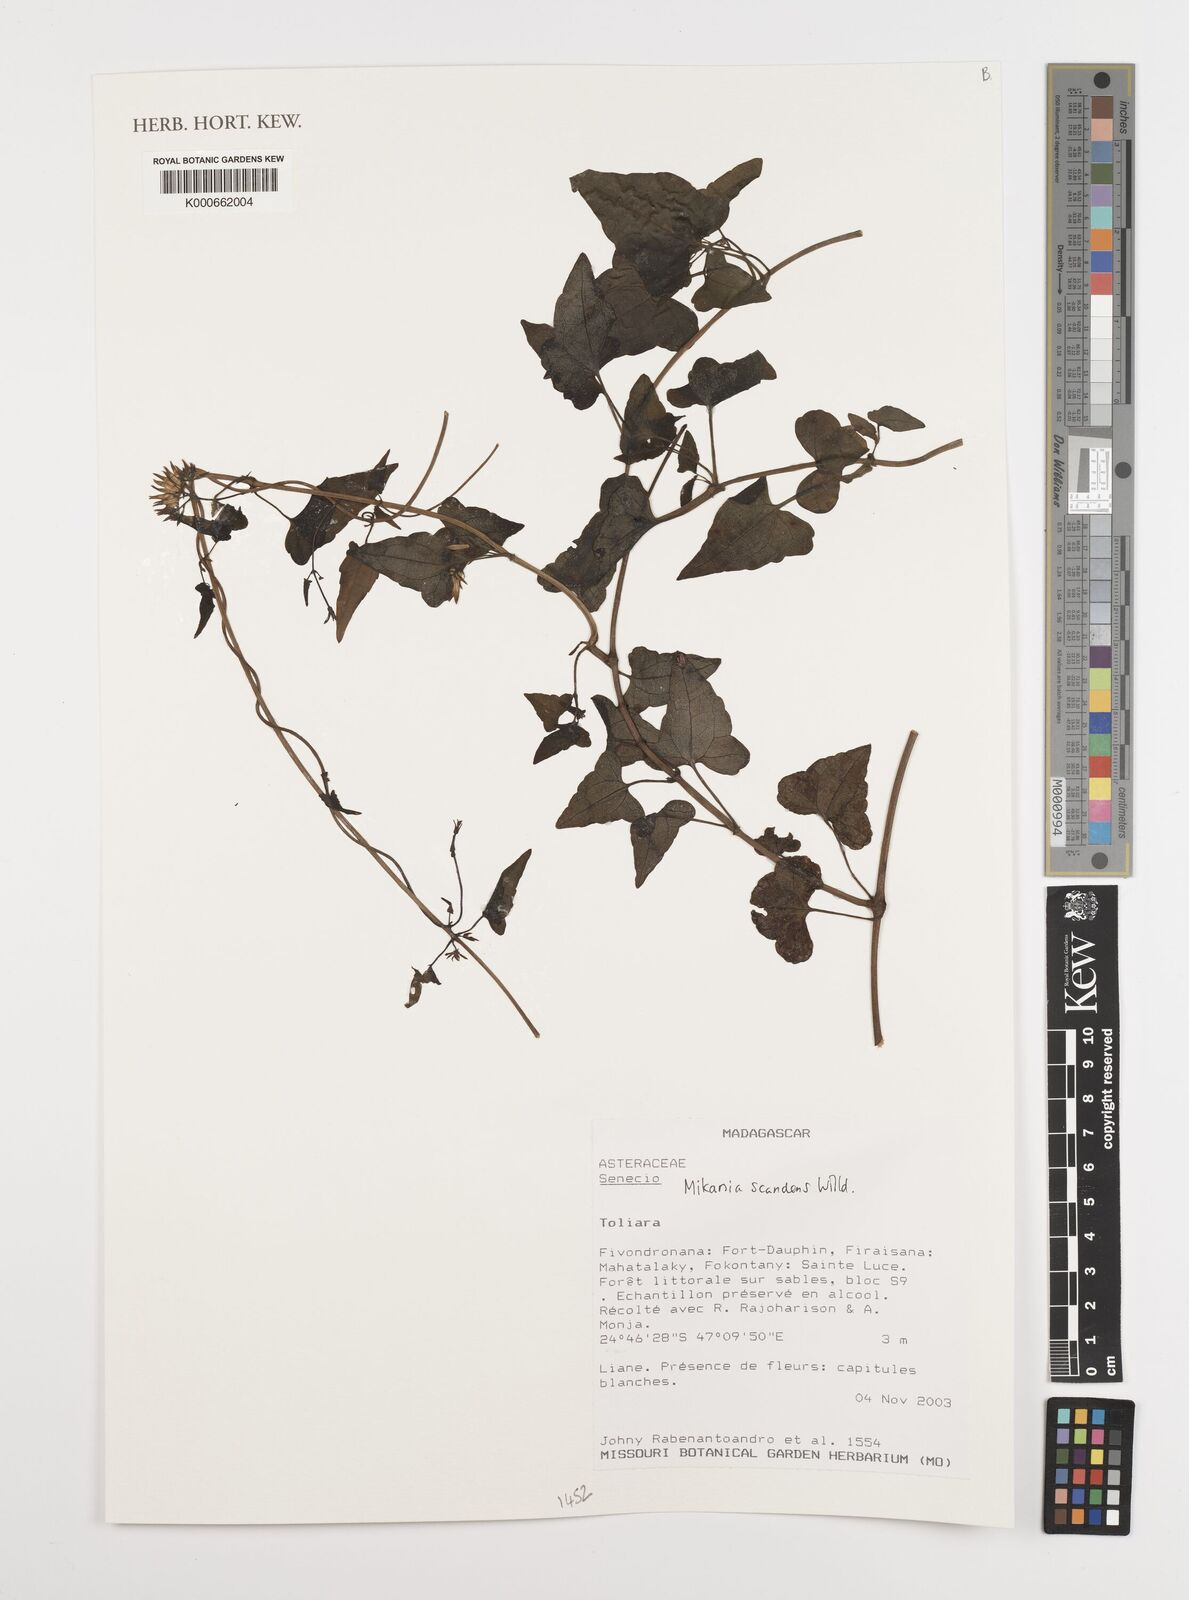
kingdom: Plantae
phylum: Tracheophyta
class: Magnoliopsida
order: Asterales
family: Asteraceae
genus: Mikania
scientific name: Mikania scandens
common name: Climbing hempvine
